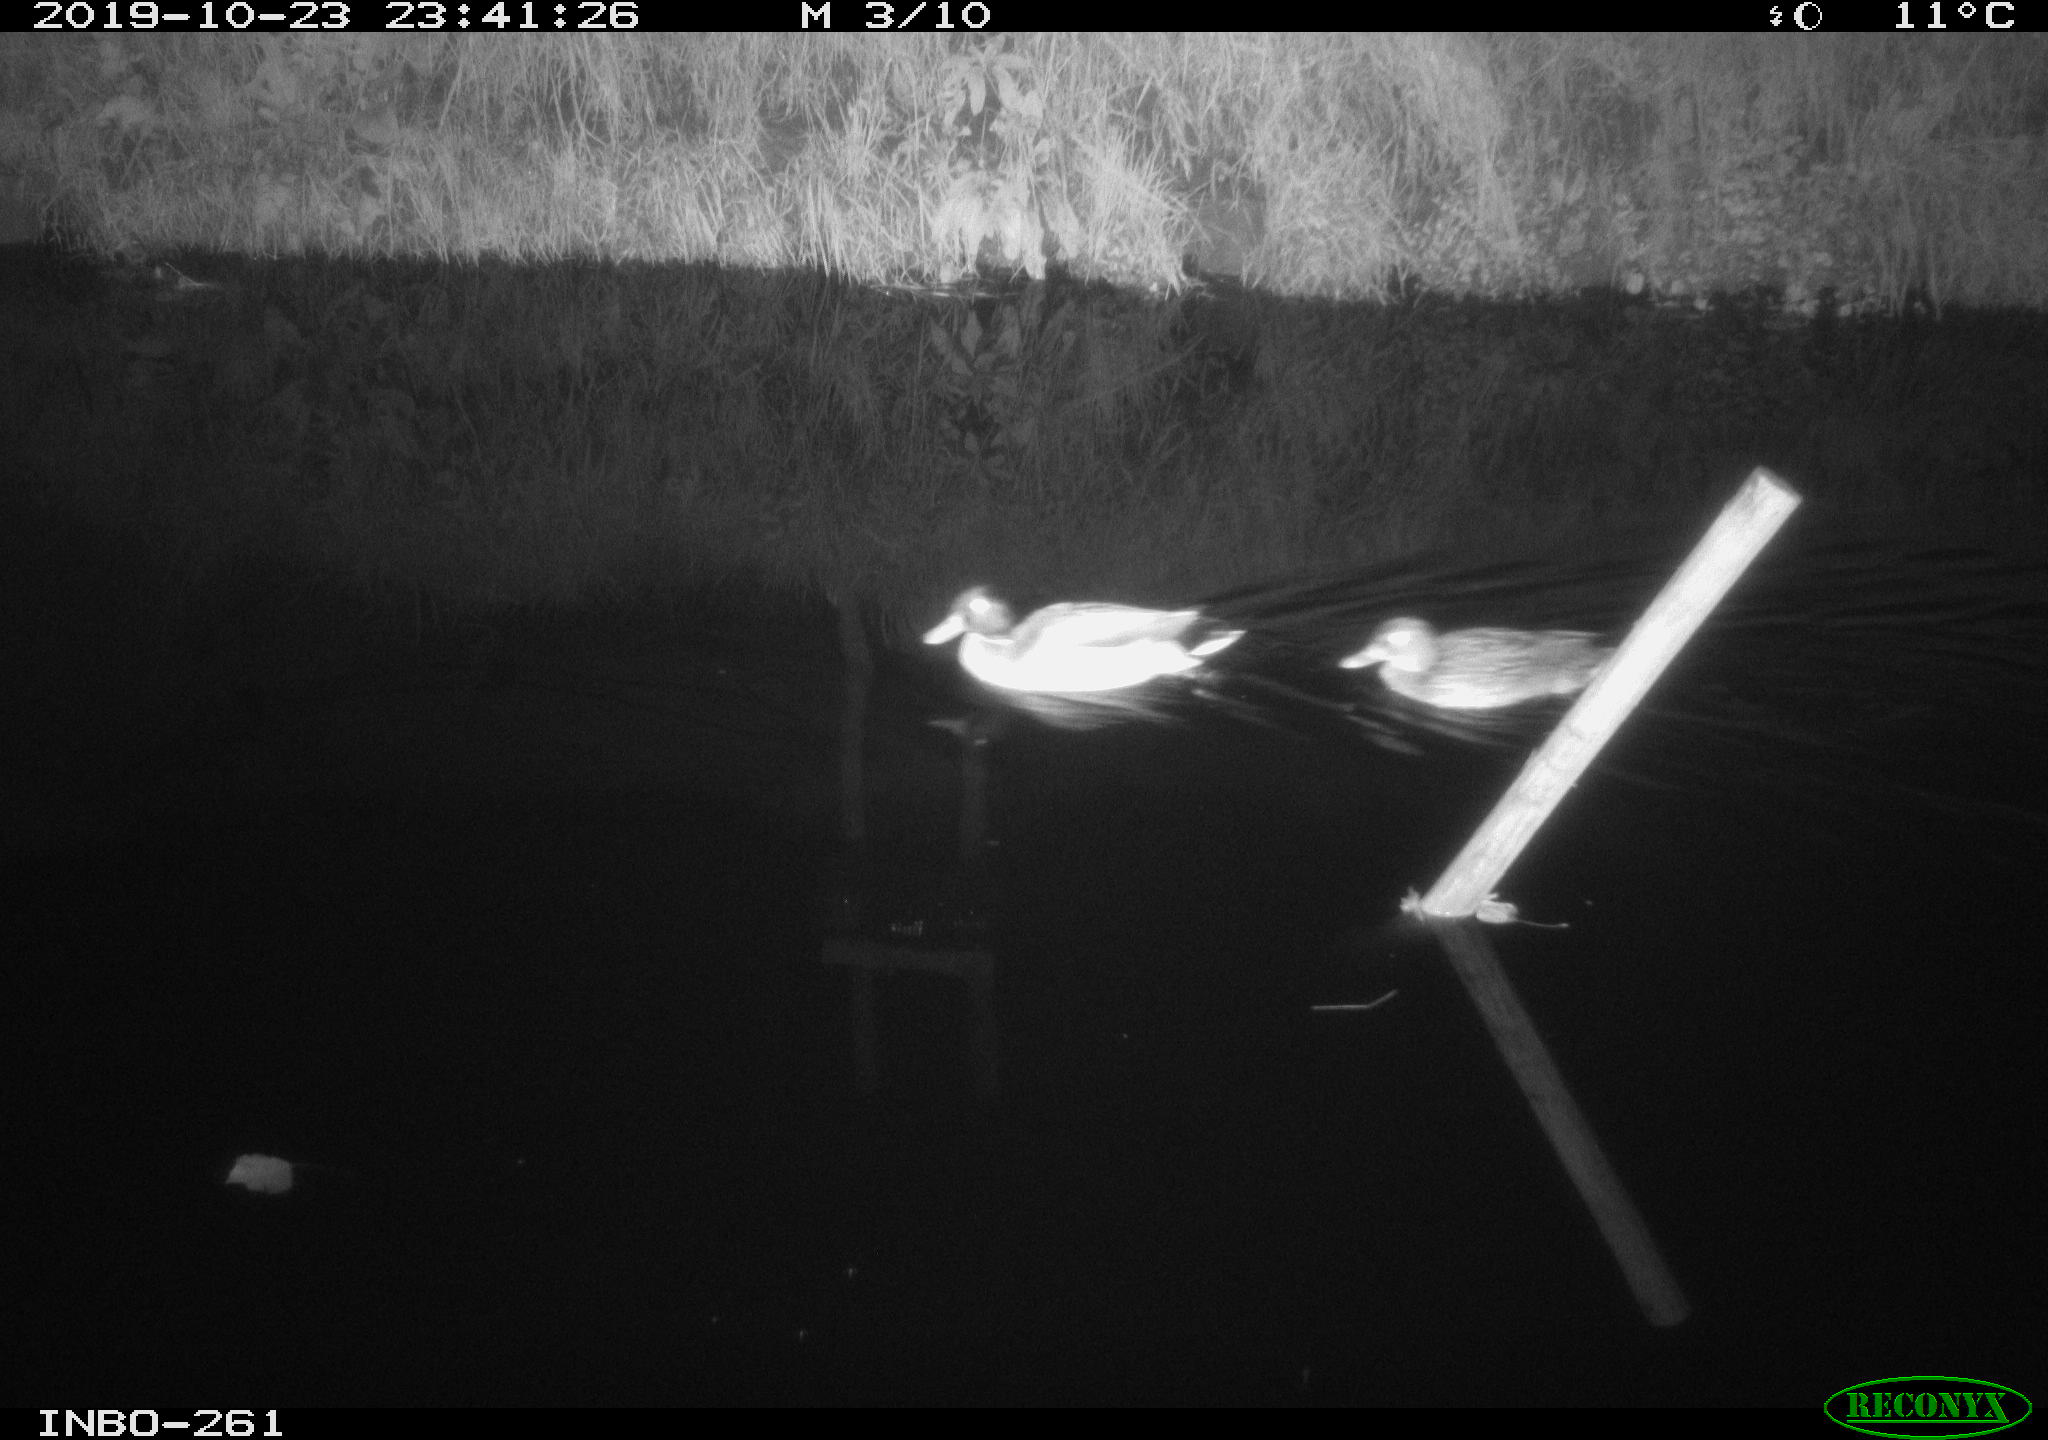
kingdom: Animalia
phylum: Chordata
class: Aves
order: Anseriformes
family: Anatidae
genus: Anas
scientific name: Anas platyrhynchos
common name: Mallard
